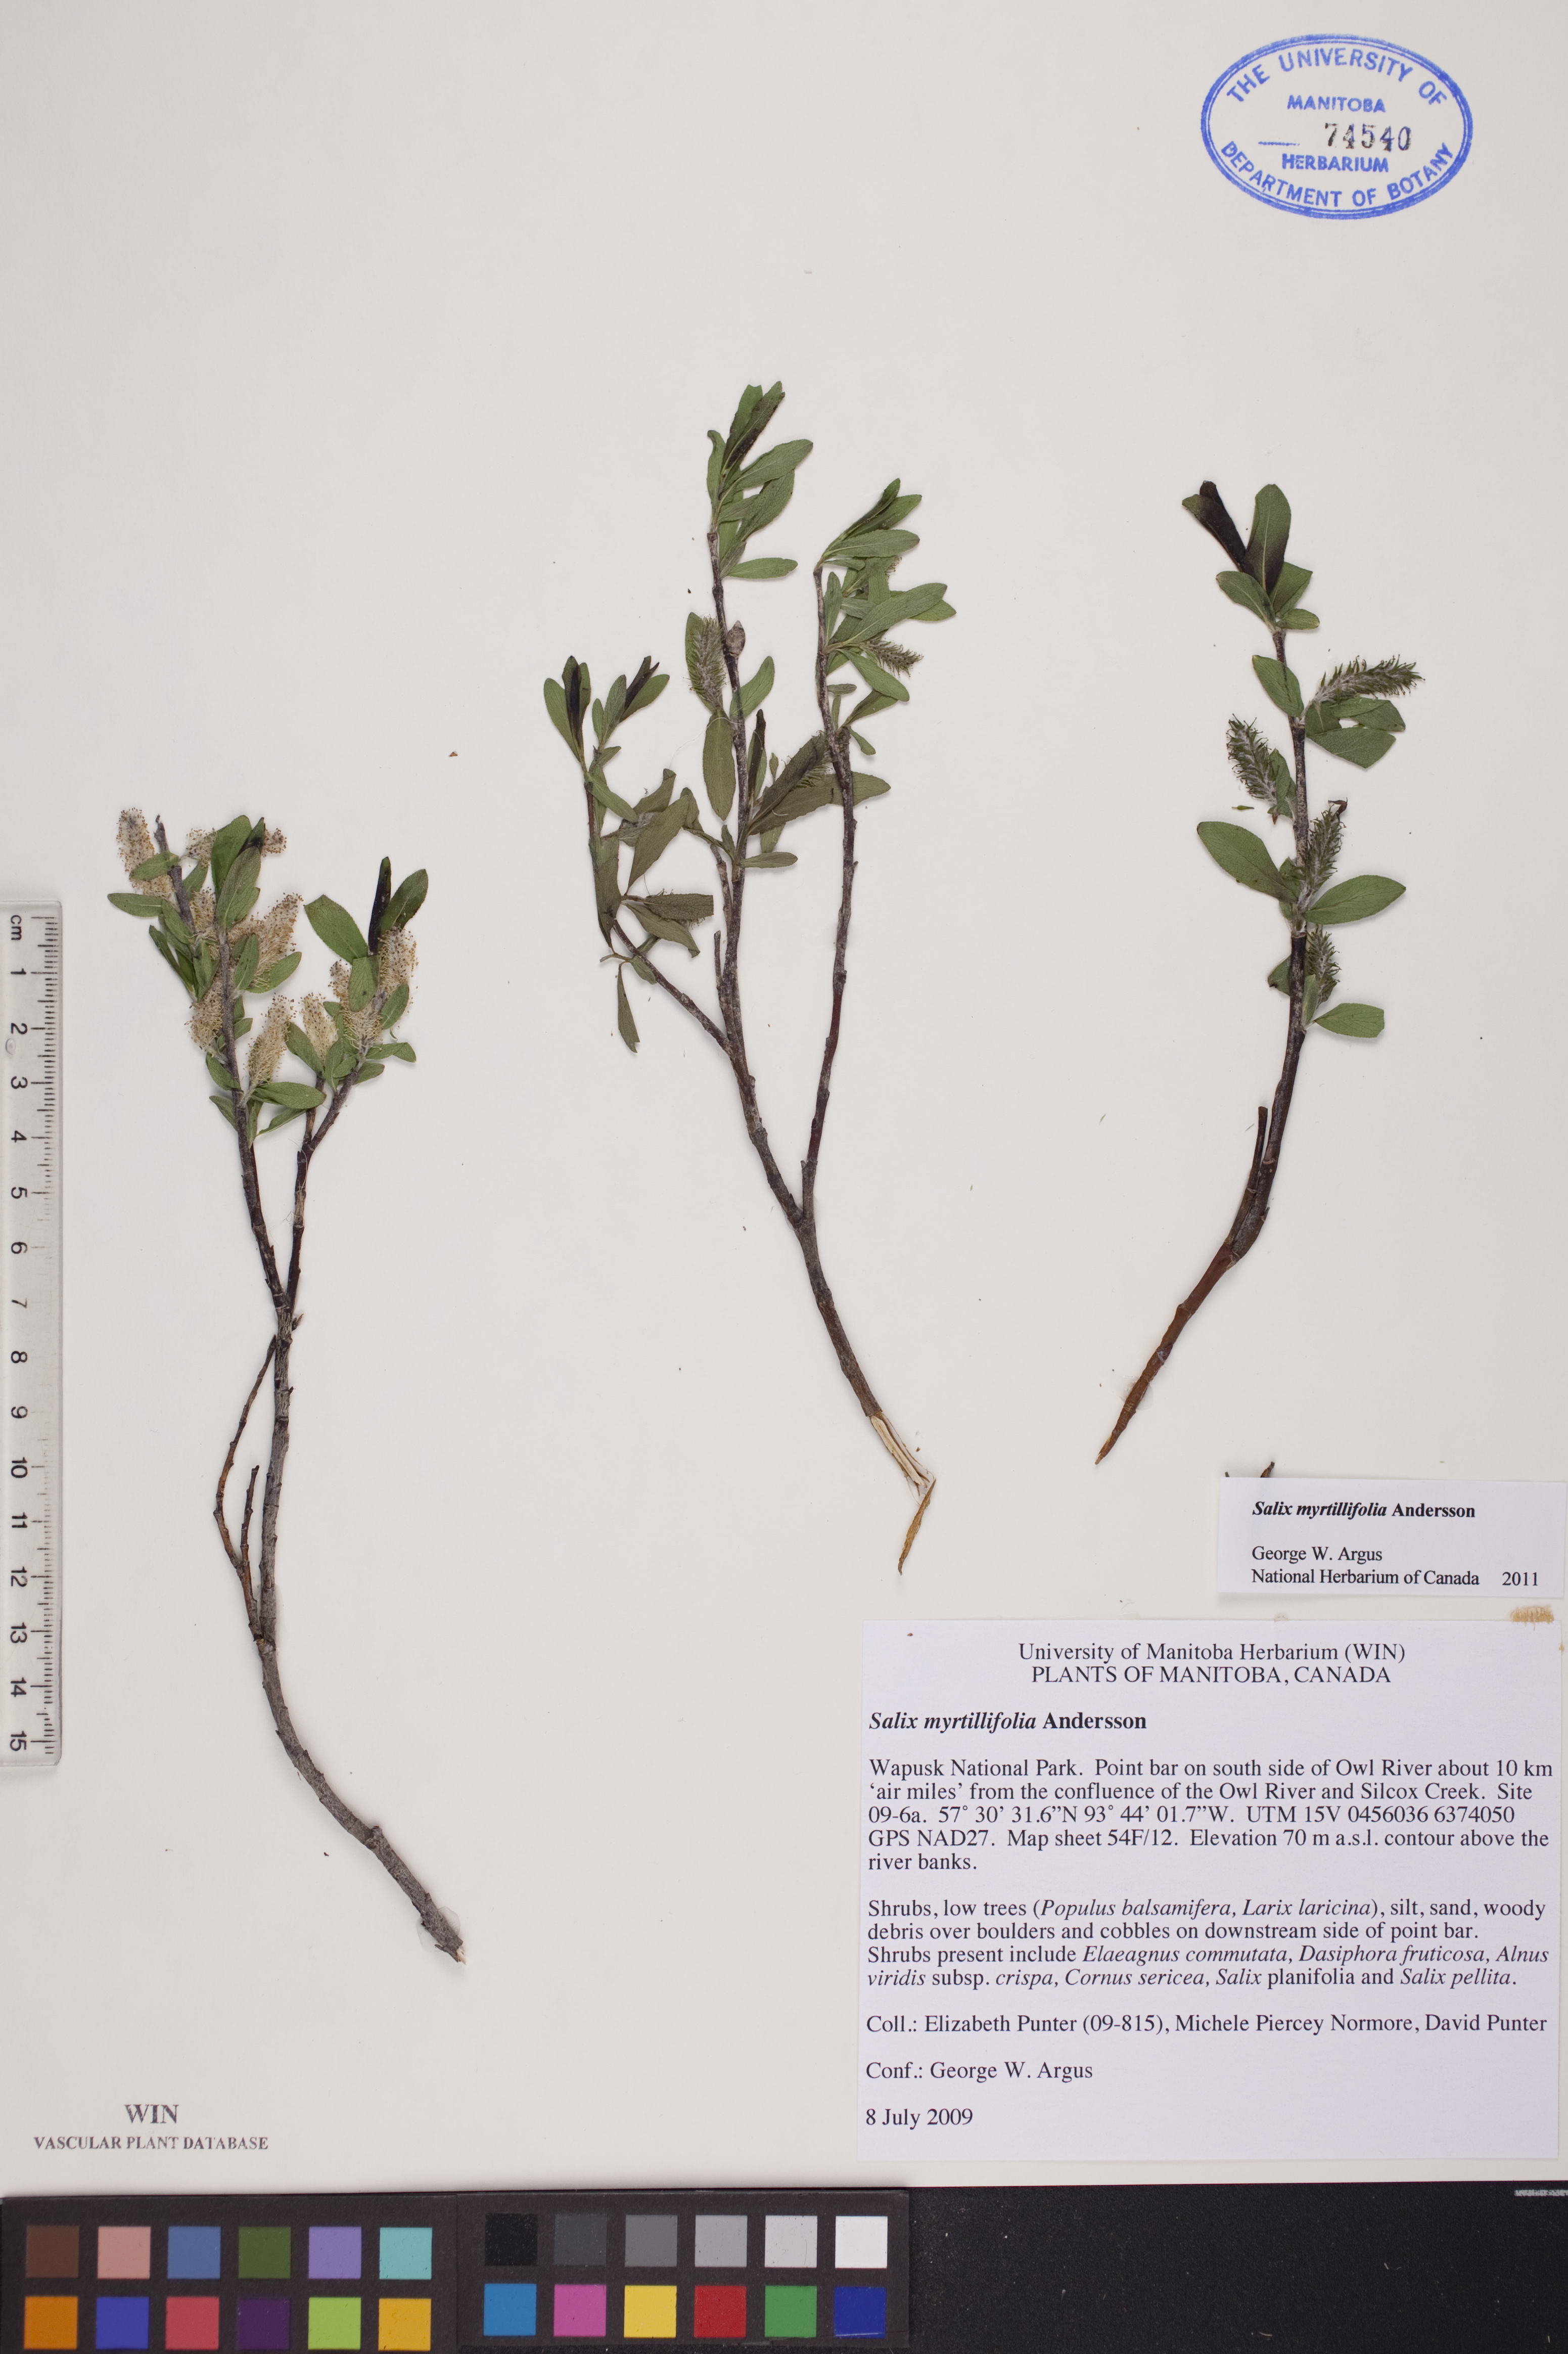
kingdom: Plantae
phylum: Tracheophyta
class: Magnoliopsida
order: Malpighiales
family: Salicaceae
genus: Salix
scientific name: Salix myrtillifolia
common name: Bilberry willow
